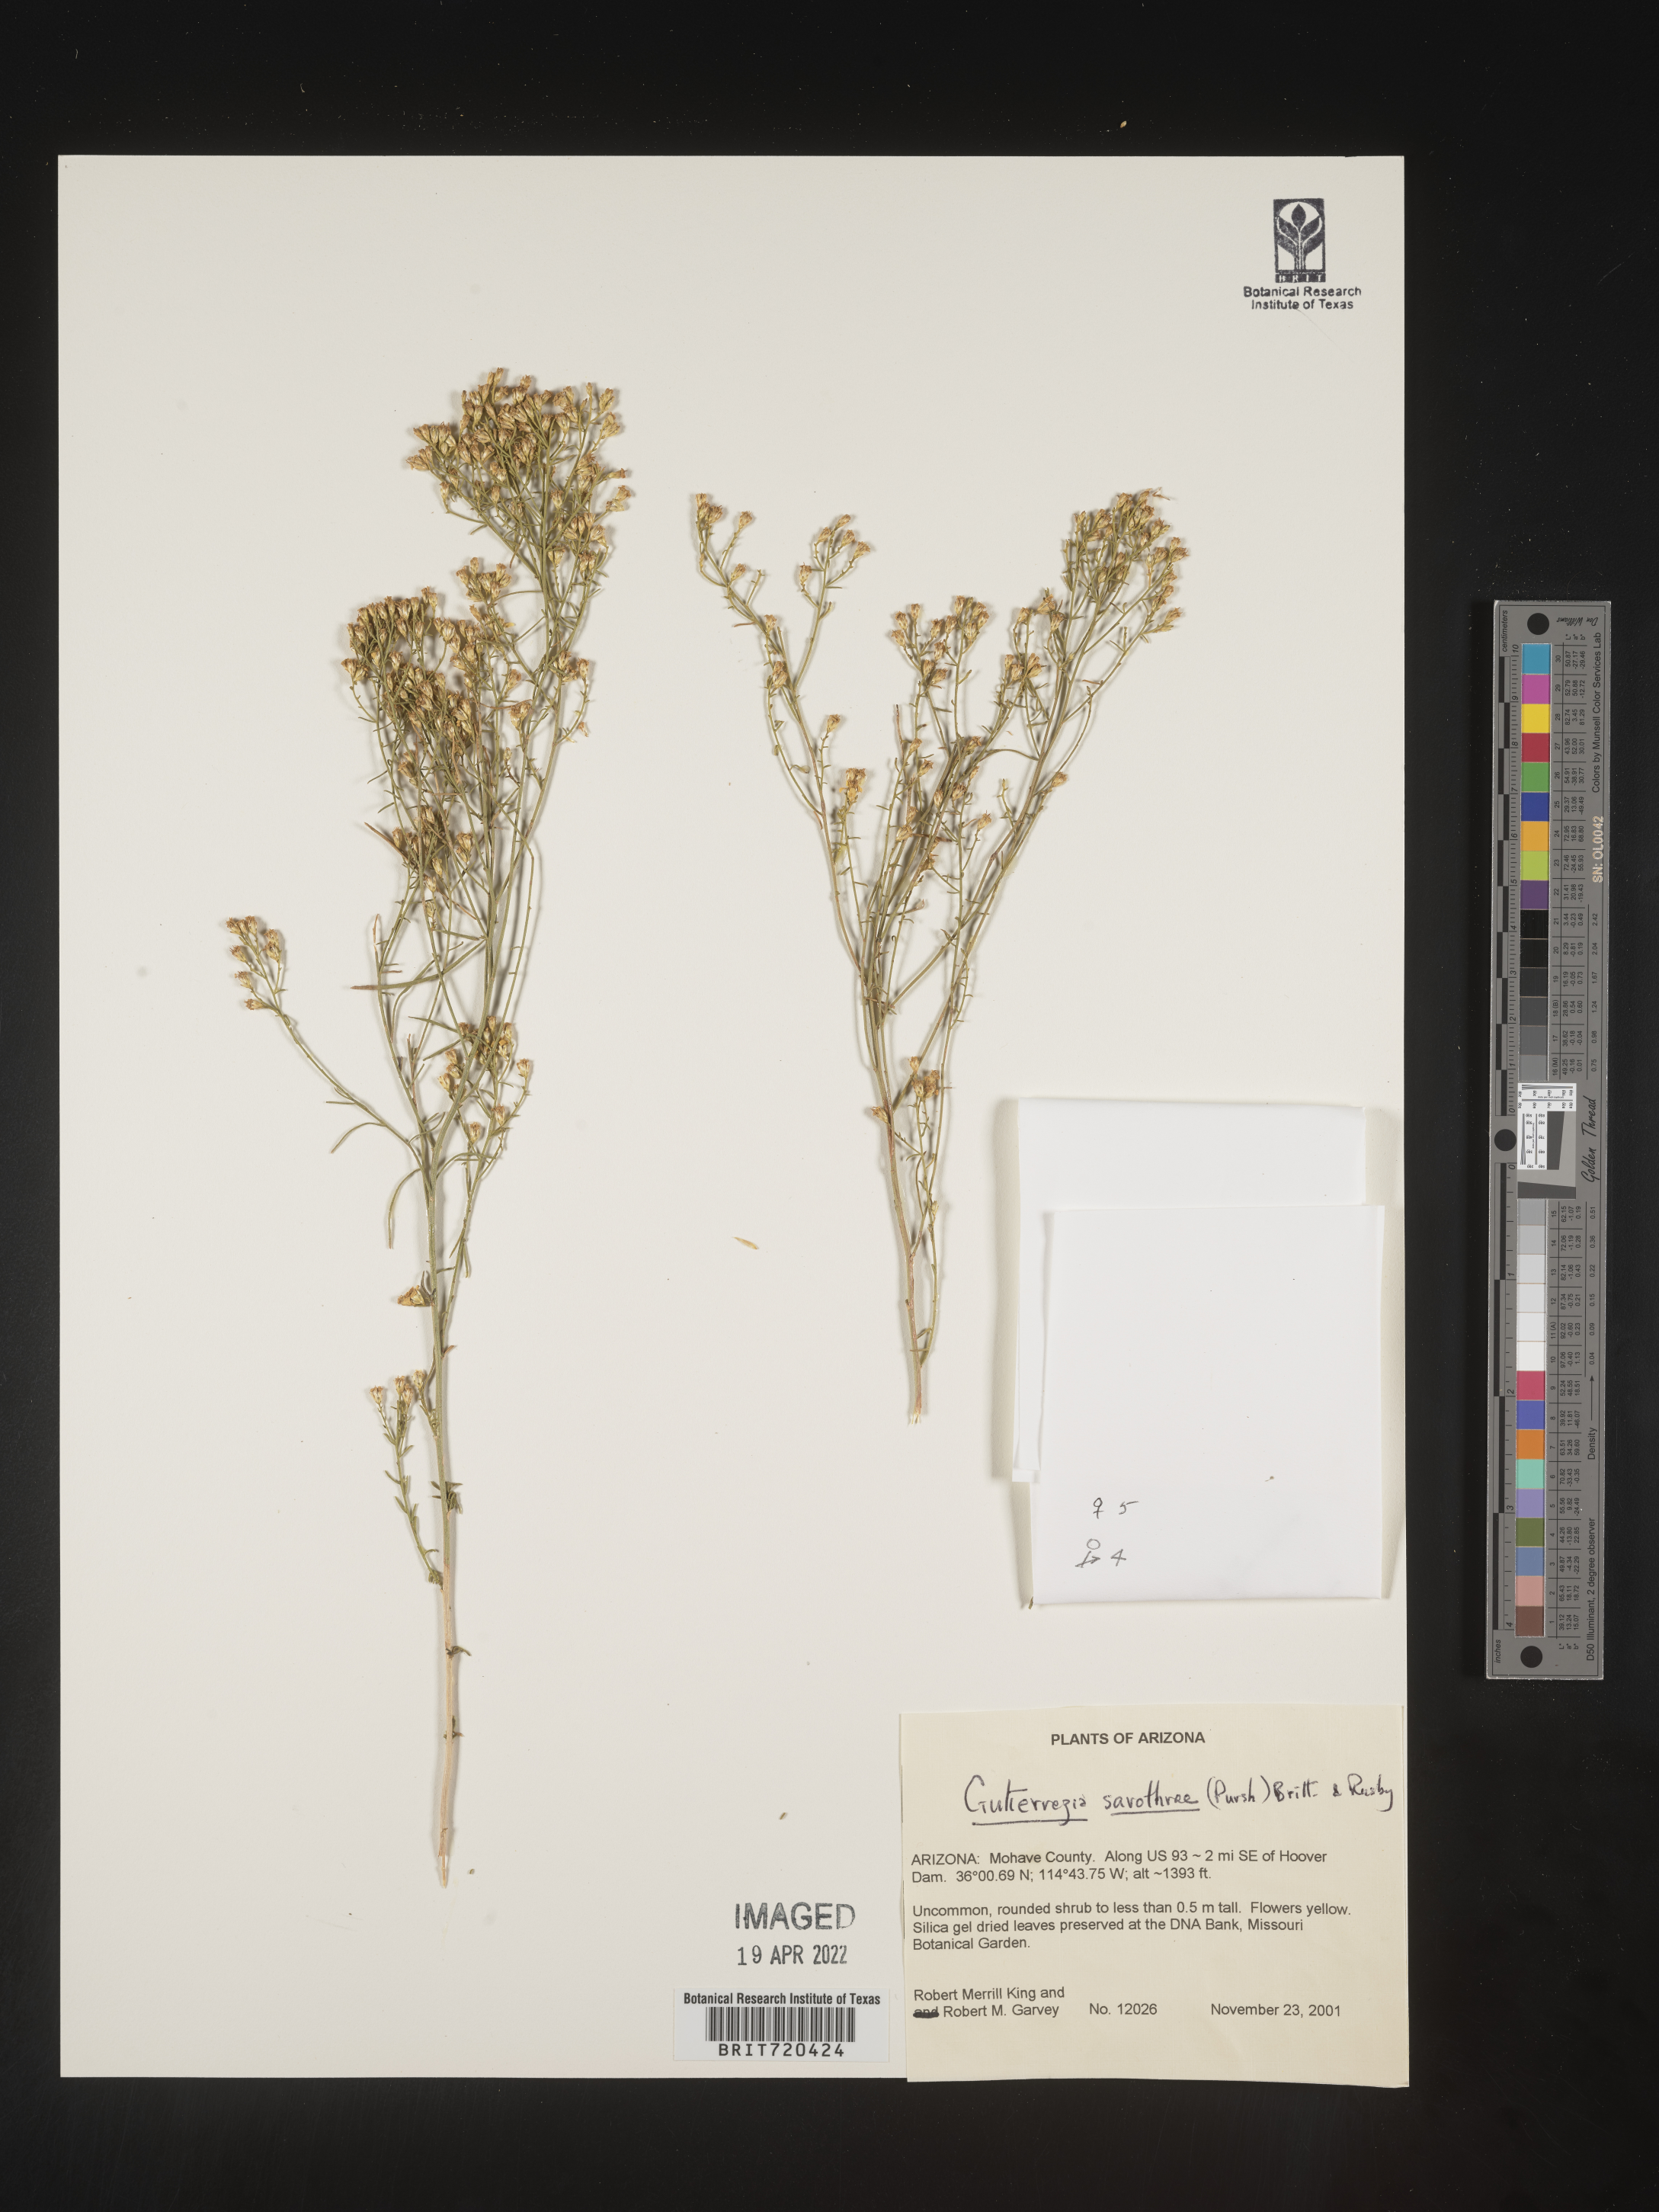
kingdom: Plantae
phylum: Tracheophyta
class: Magnoliopsida
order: Asterales
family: Asteraceae
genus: Gutierrezia
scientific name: Gutierrezia sarothrae
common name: Broom snakeweed
